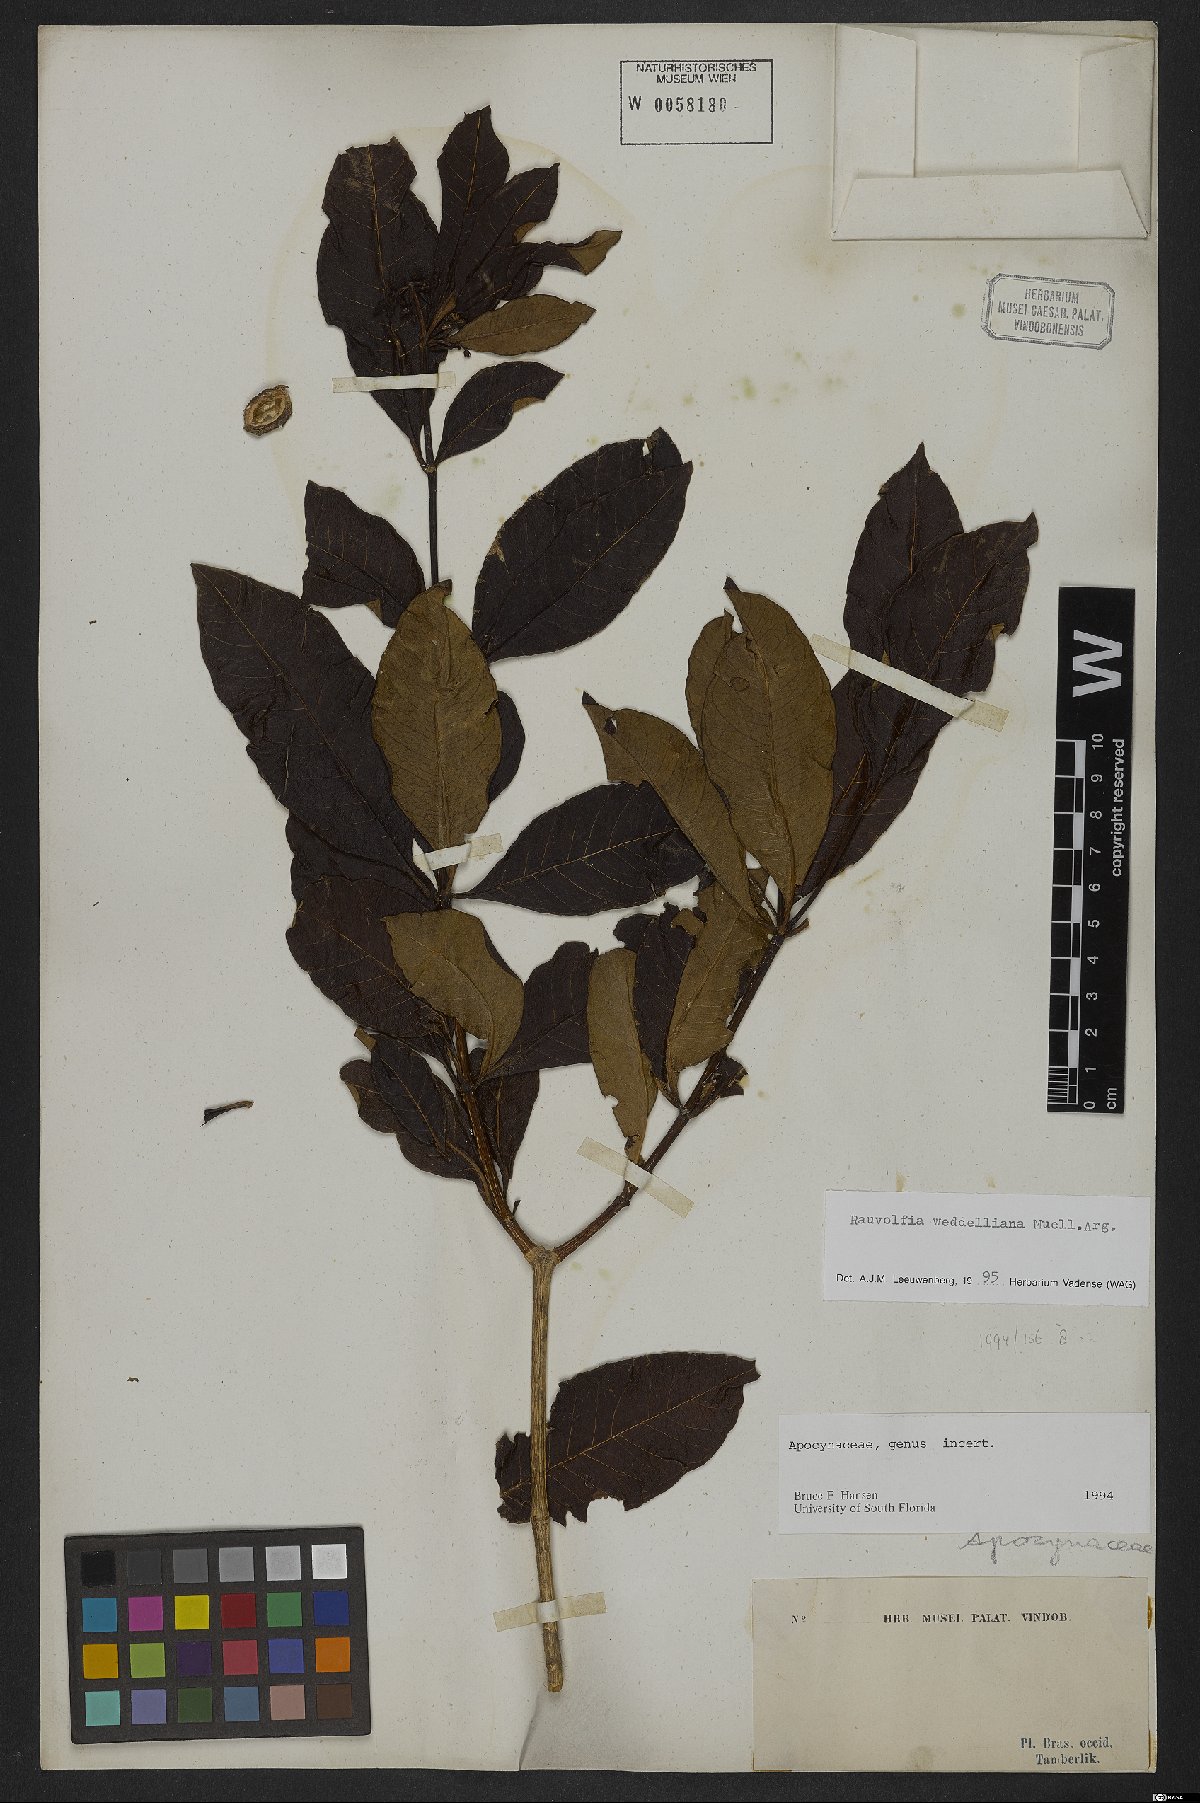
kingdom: Plantae
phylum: Tracheophyta
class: Magnoliopsida
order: Gentianales
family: Apocynaceae
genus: Rauvolfia
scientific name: Rauvolfia weddeliana
